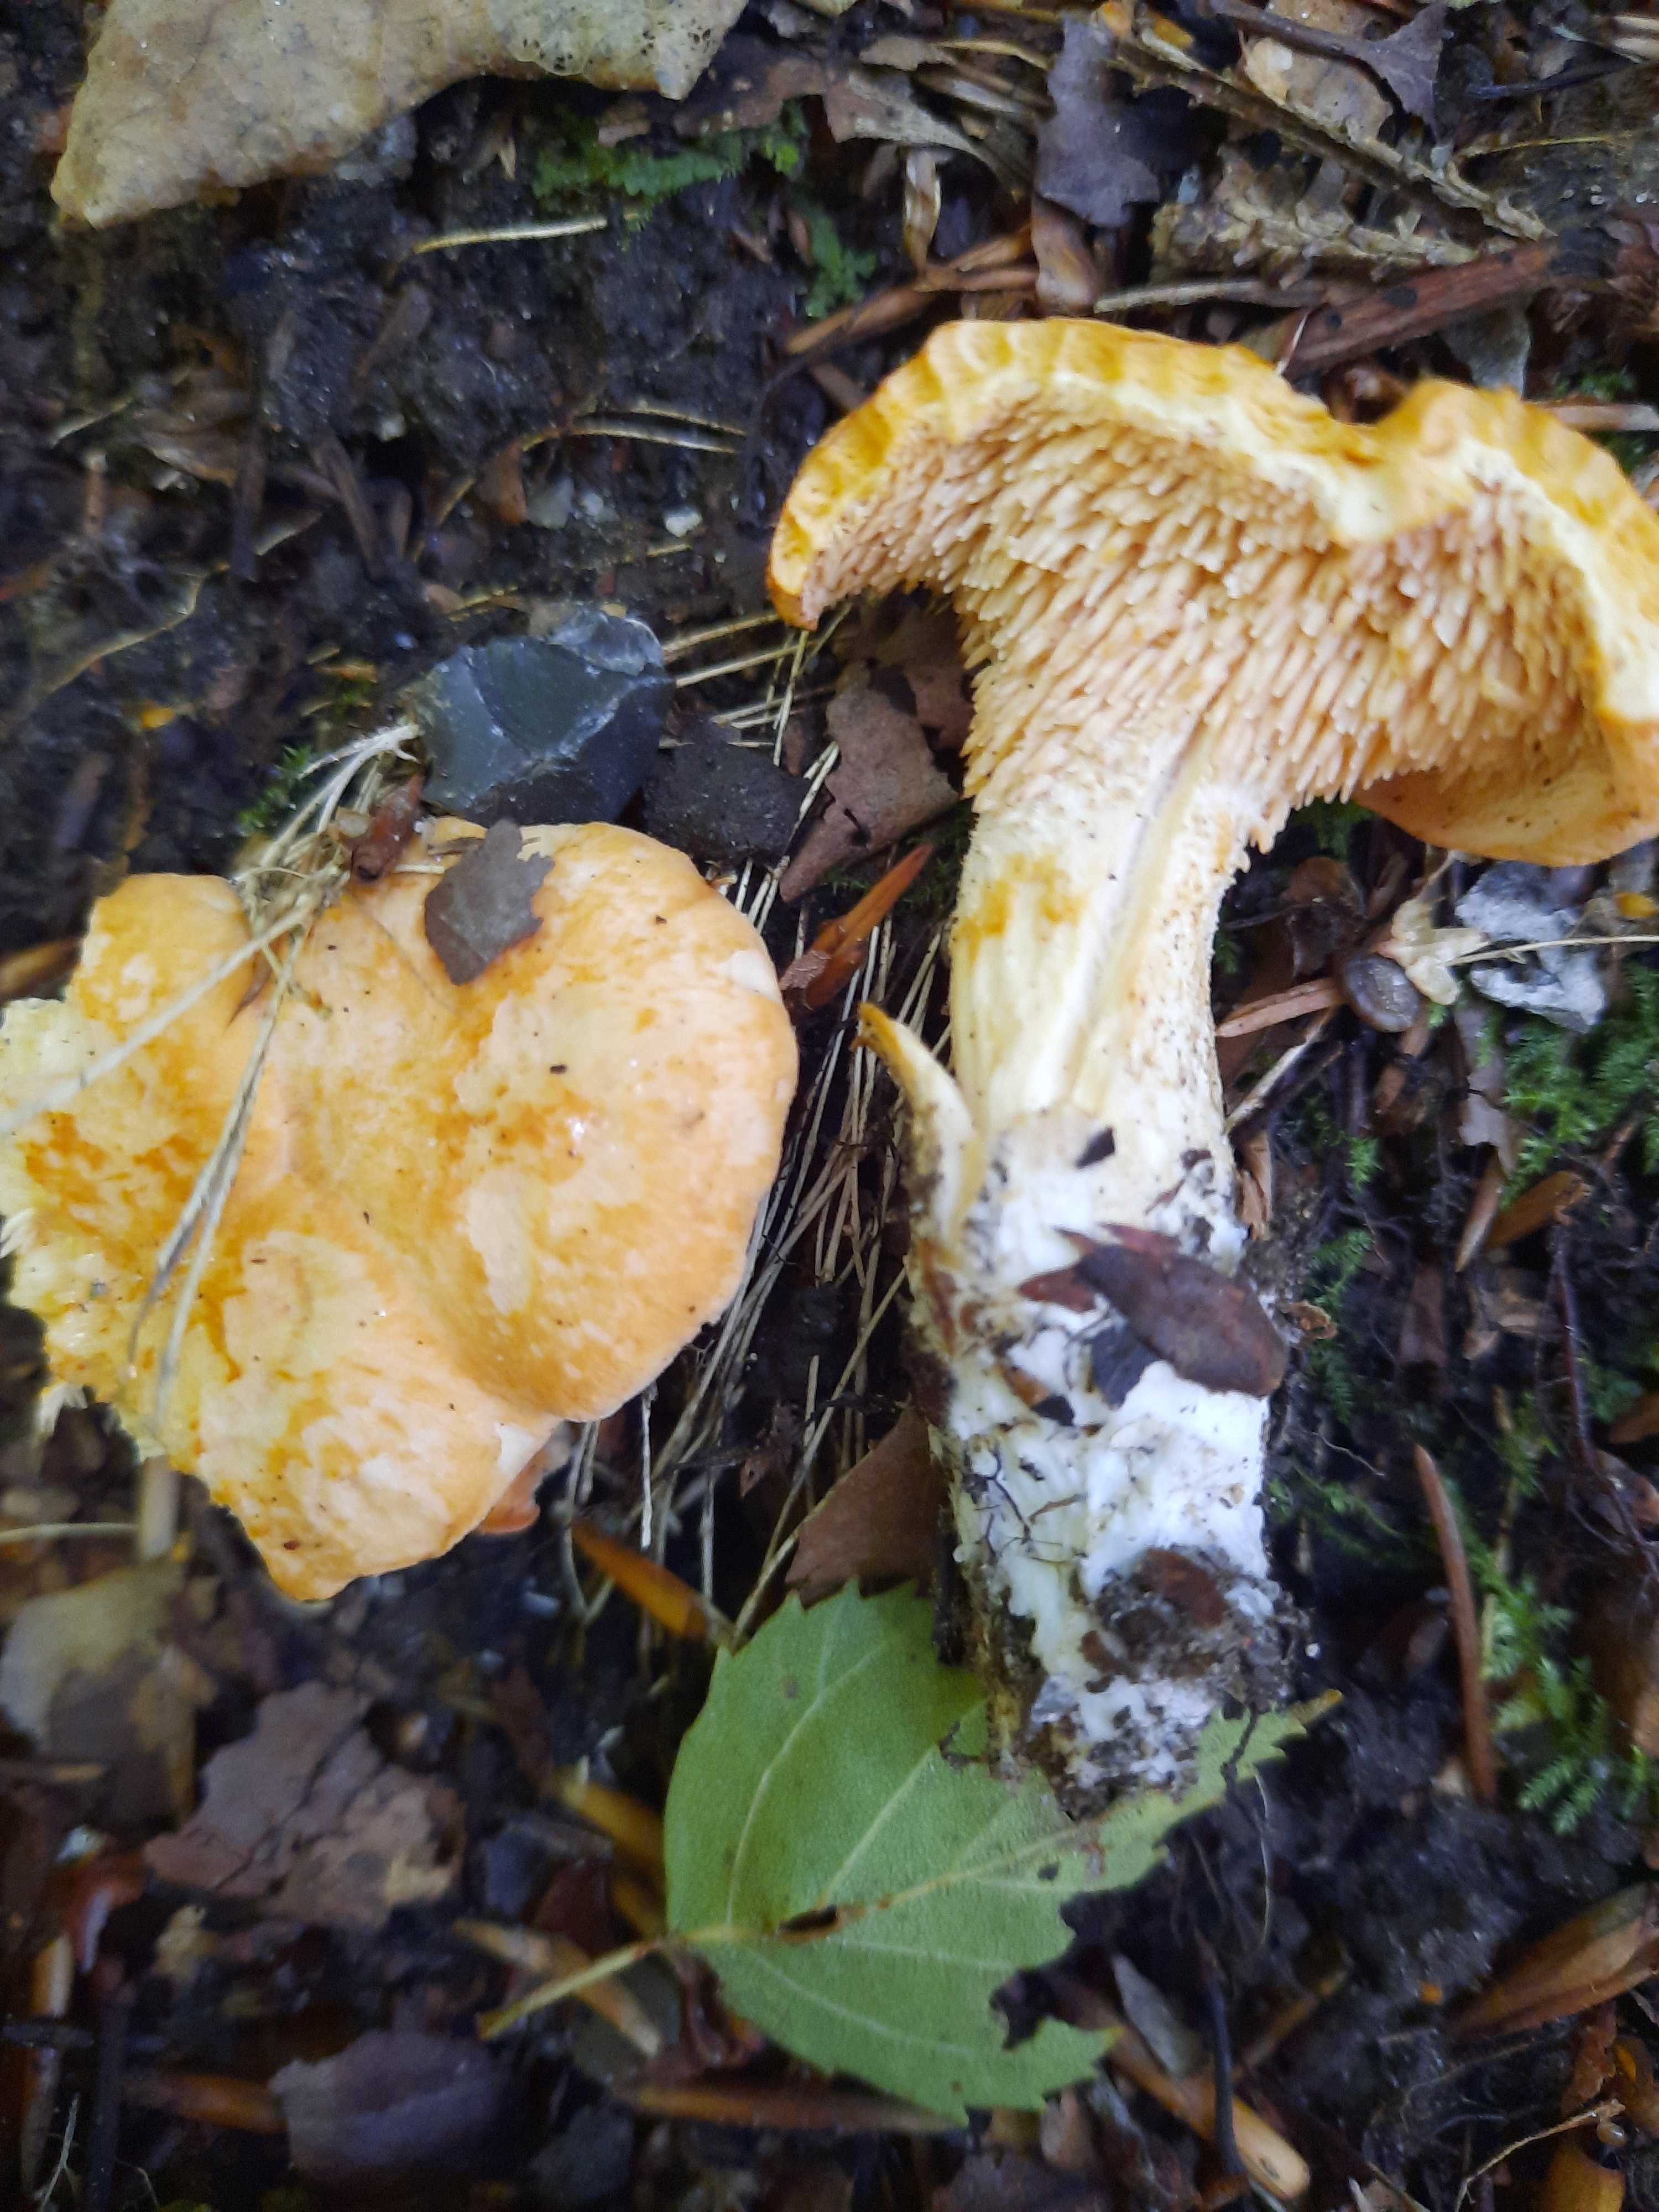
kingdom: Fungi
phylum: Basidiomycota
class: Agaricomycetes
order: Cantharellales
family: Hydnaceae
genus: Hydnum
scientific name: Hydnum ellipsosporum
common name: tandet pigsvamp
